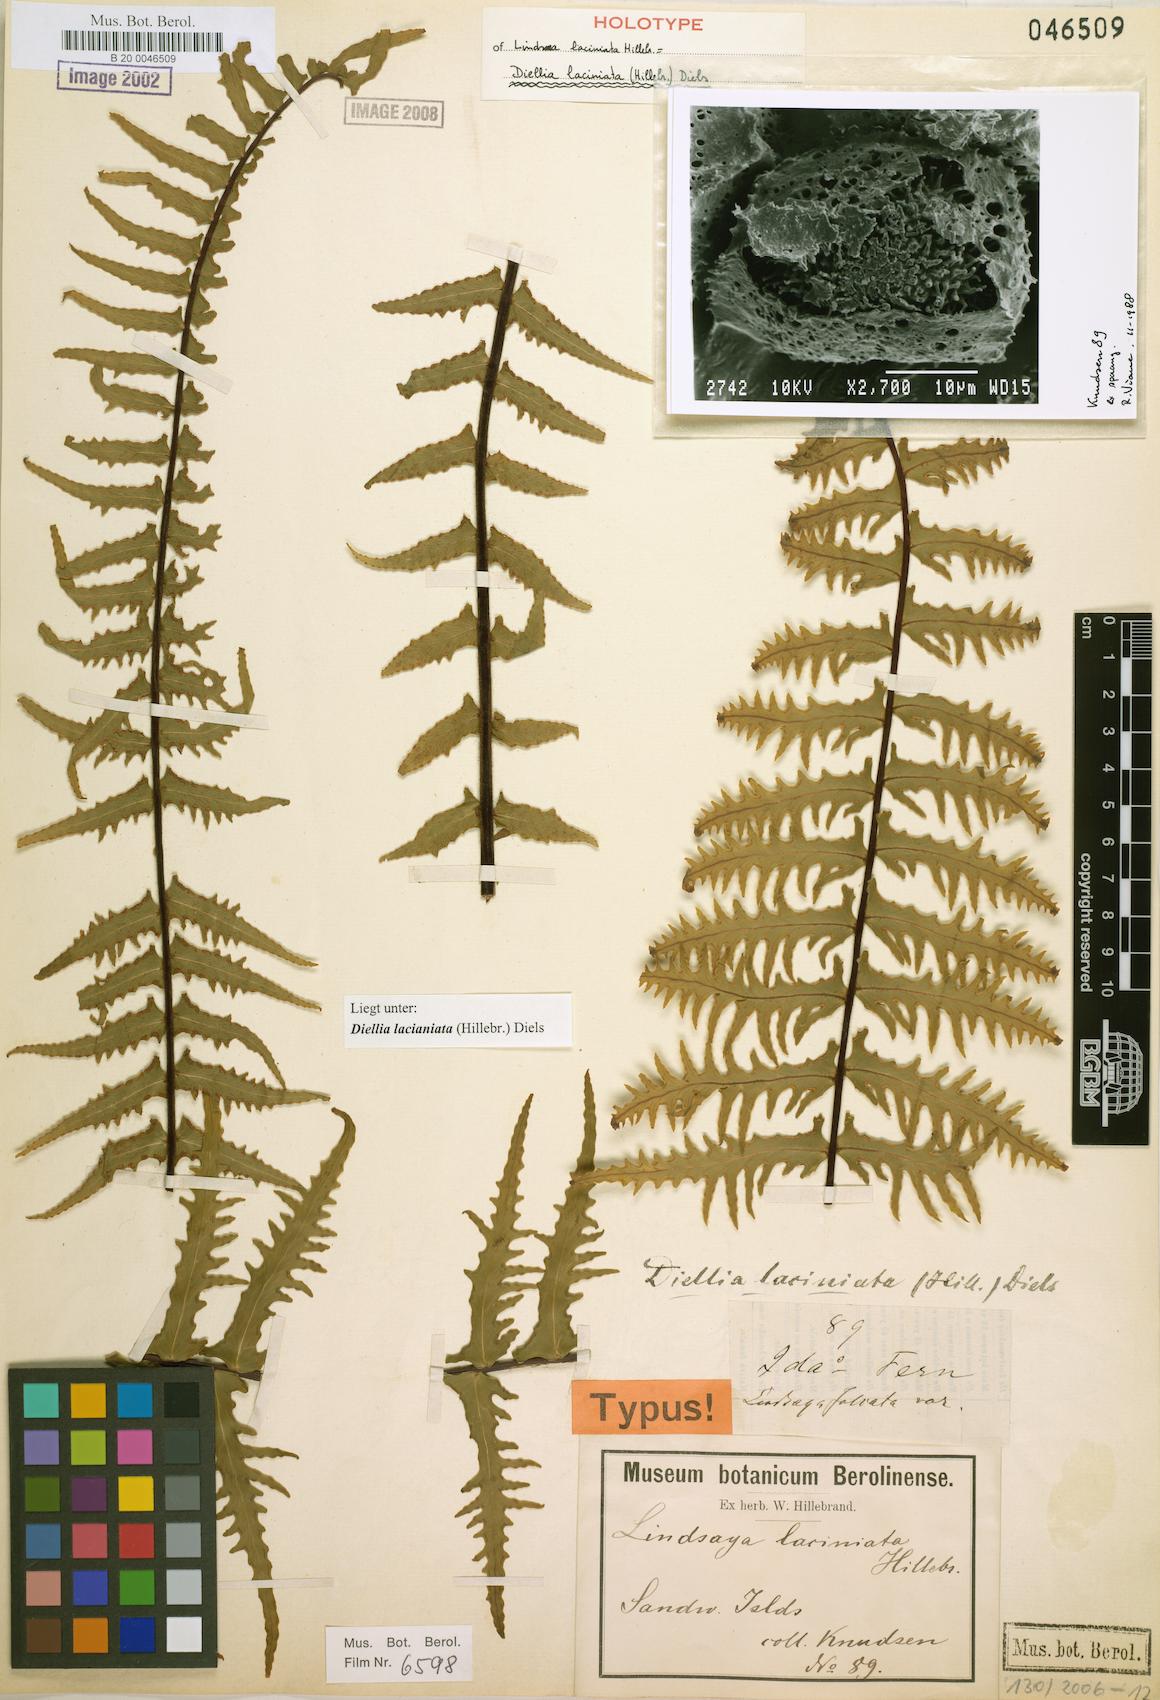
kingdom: Plantae
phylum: Tracheophyta
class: Polypodiopsida
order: Polypodiales
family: Aspleniaceae
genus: Asplenium
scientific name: Asplenium diellaciniatum
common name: Cutleaf island spleenwort
